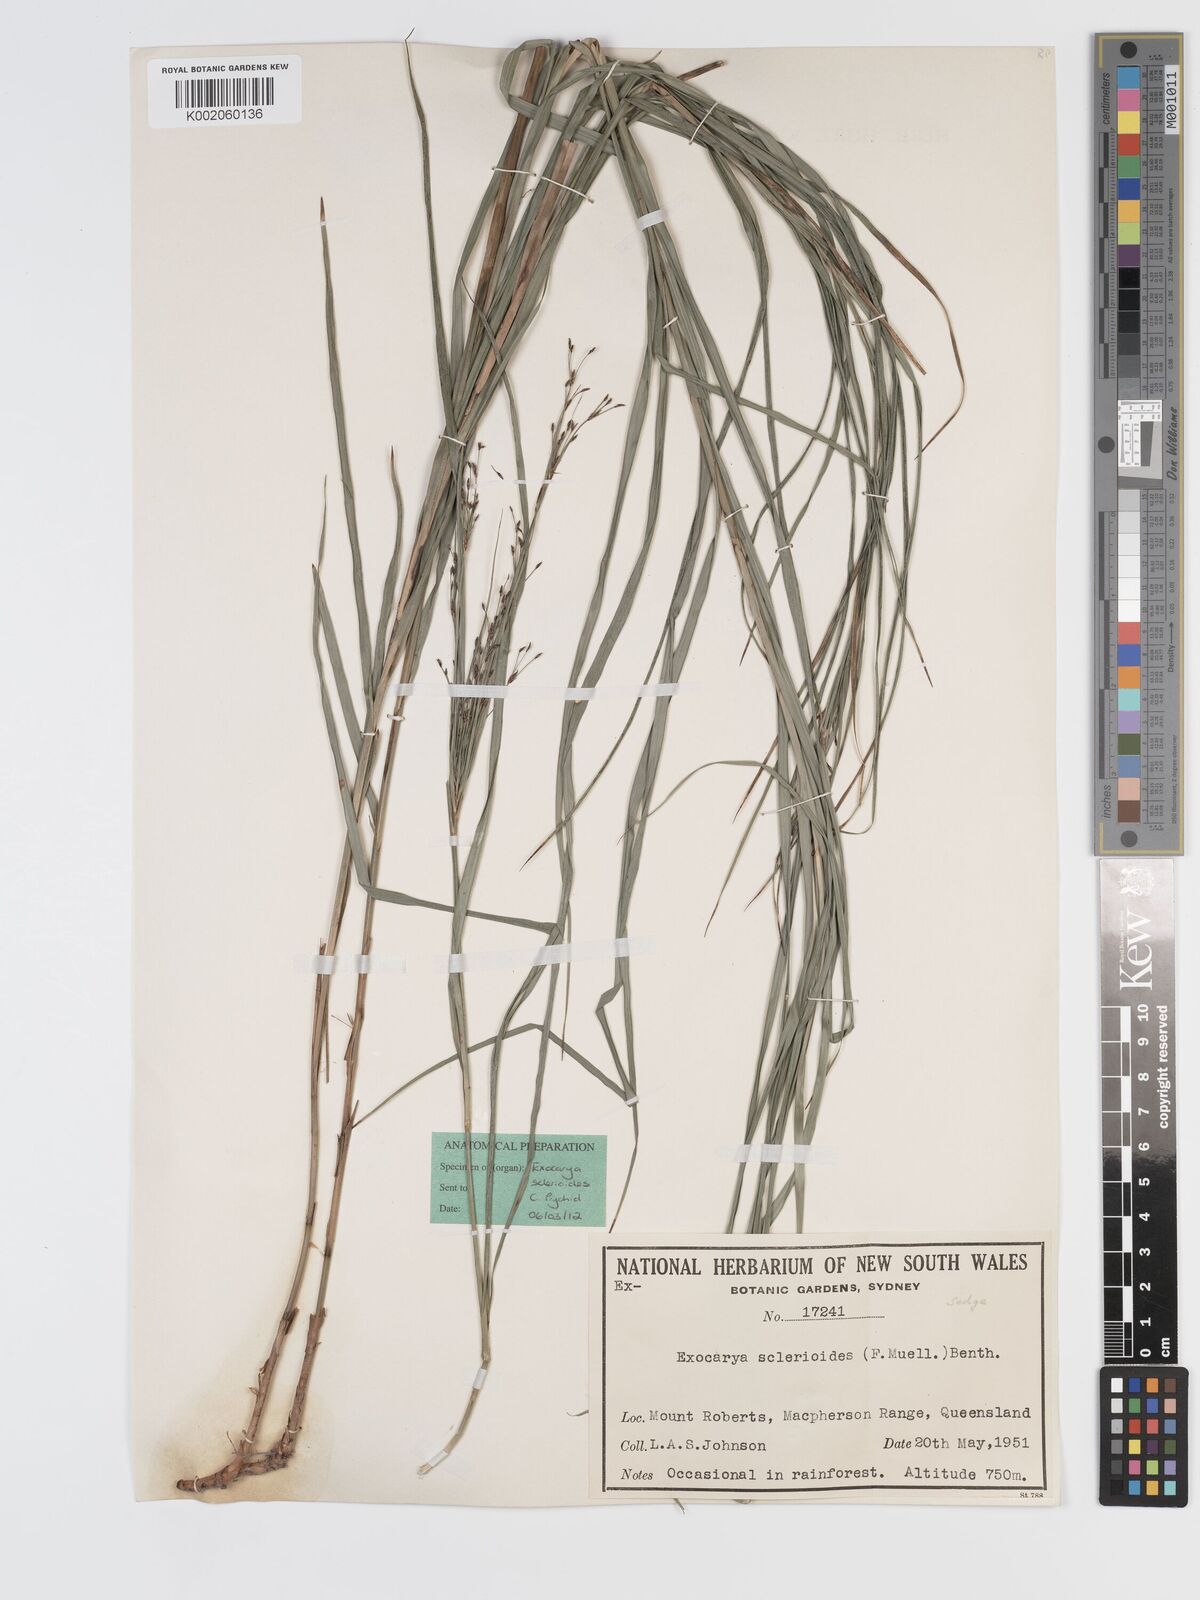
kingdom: Plantae
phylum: Tracheophyta
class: Liliopsida
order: Poales
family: Cyperaceae
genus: Exocarya
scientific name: Exocarya sclerioides
